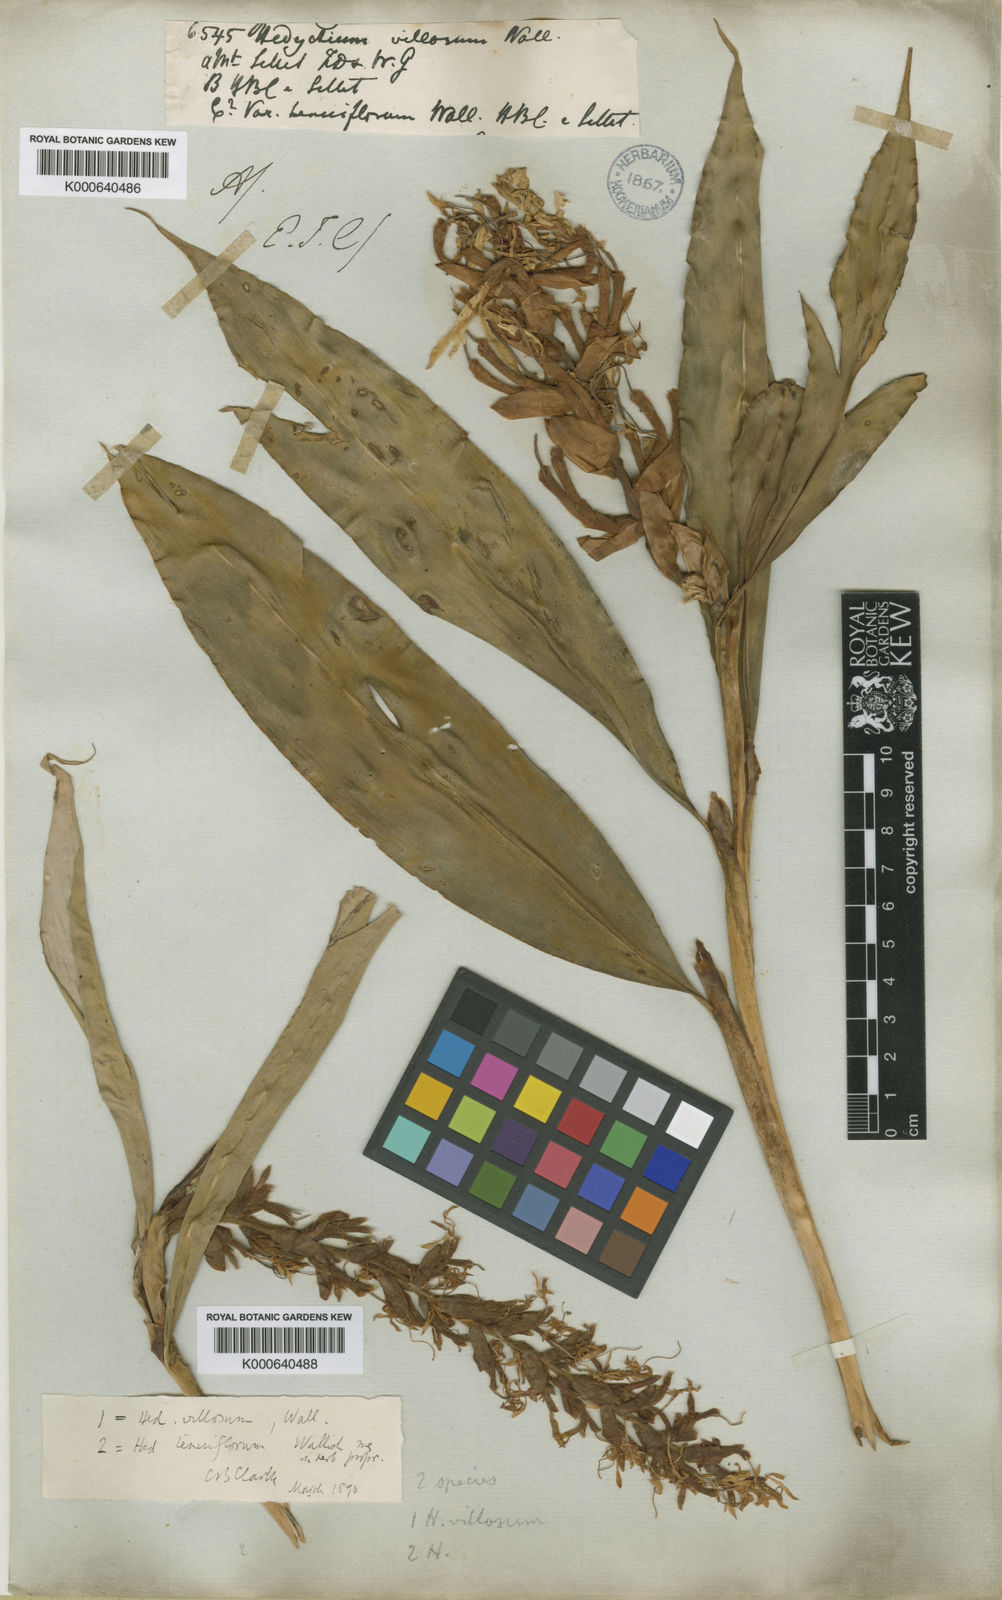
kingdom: Plantae
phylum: Tracheophyta
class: Liliopsida
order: Zingiberales
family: Zingiberaceae
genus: Hedychium
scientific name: Hedychium villosum
